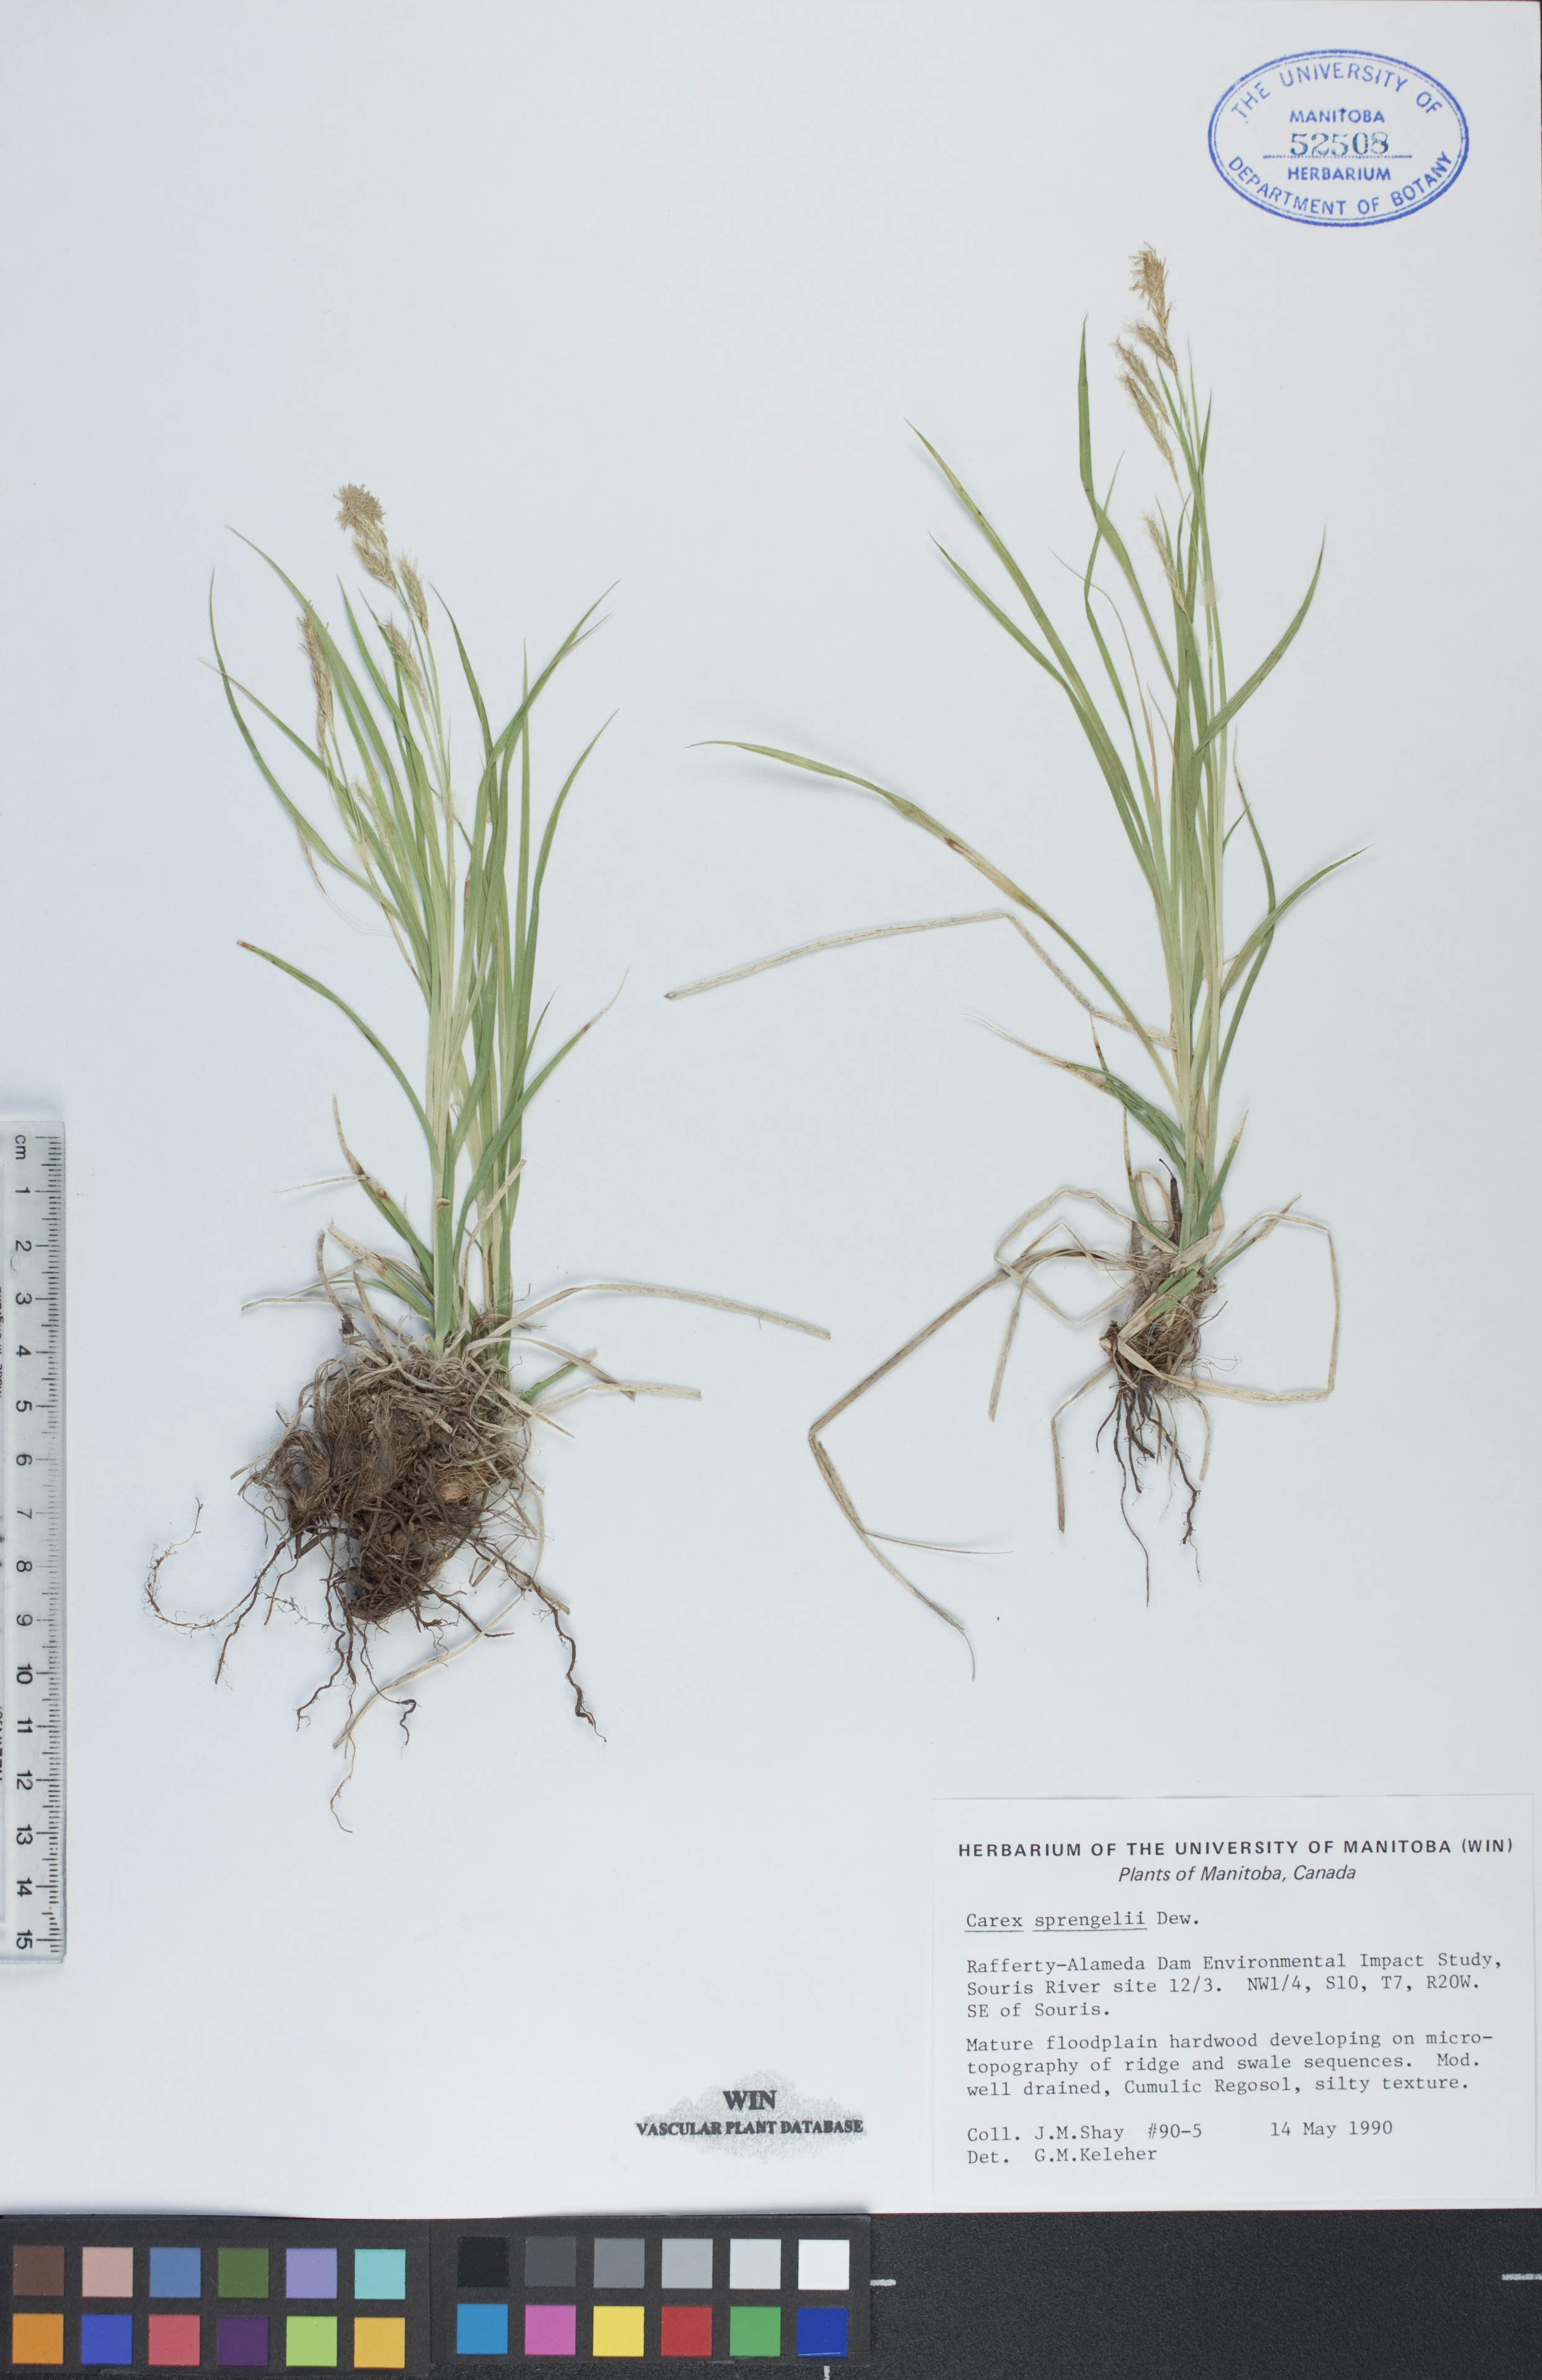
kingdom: Plantae
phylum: Tracheophyta
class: Liliopsida
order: Poales
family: Cyperaceae
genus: Carex
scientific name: Carex sprengelii
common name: Long-beaked sedge
